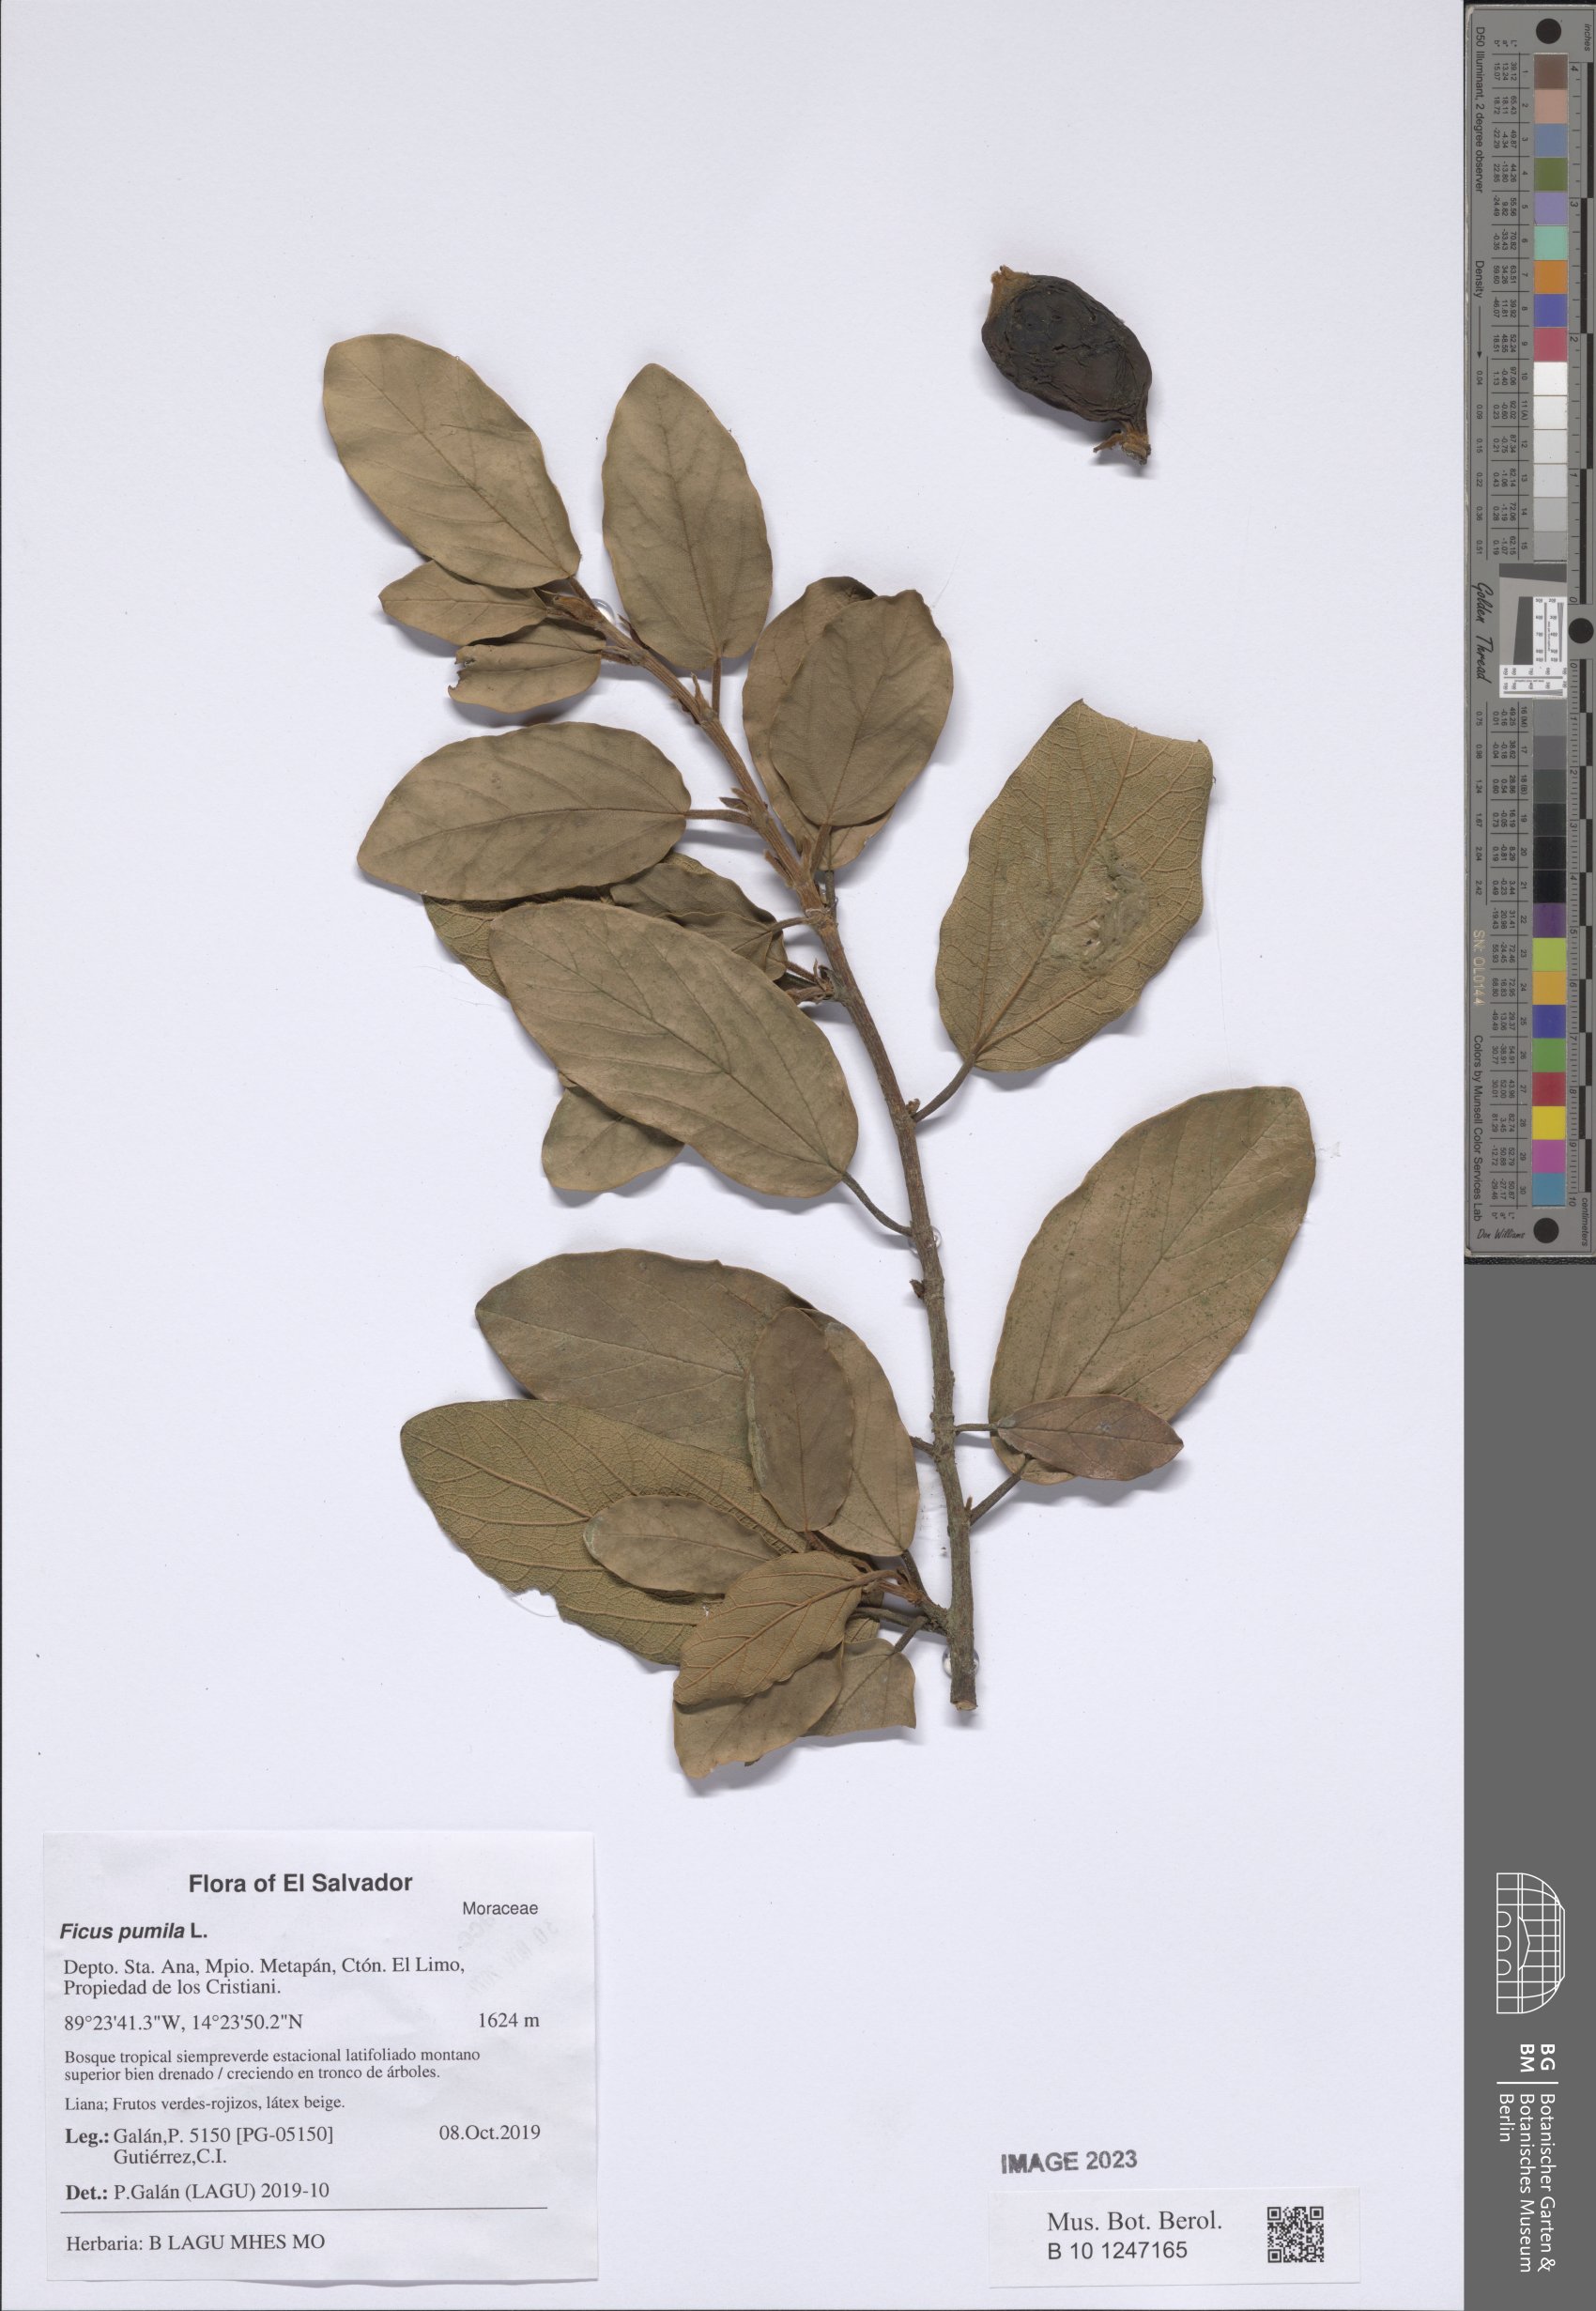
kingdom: Plantae
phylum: Tracheophyta
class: Magnoliopsida
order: Rosales
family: Moraceae
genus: Ficus
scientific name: Ficus pumila
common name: Climbingfig
